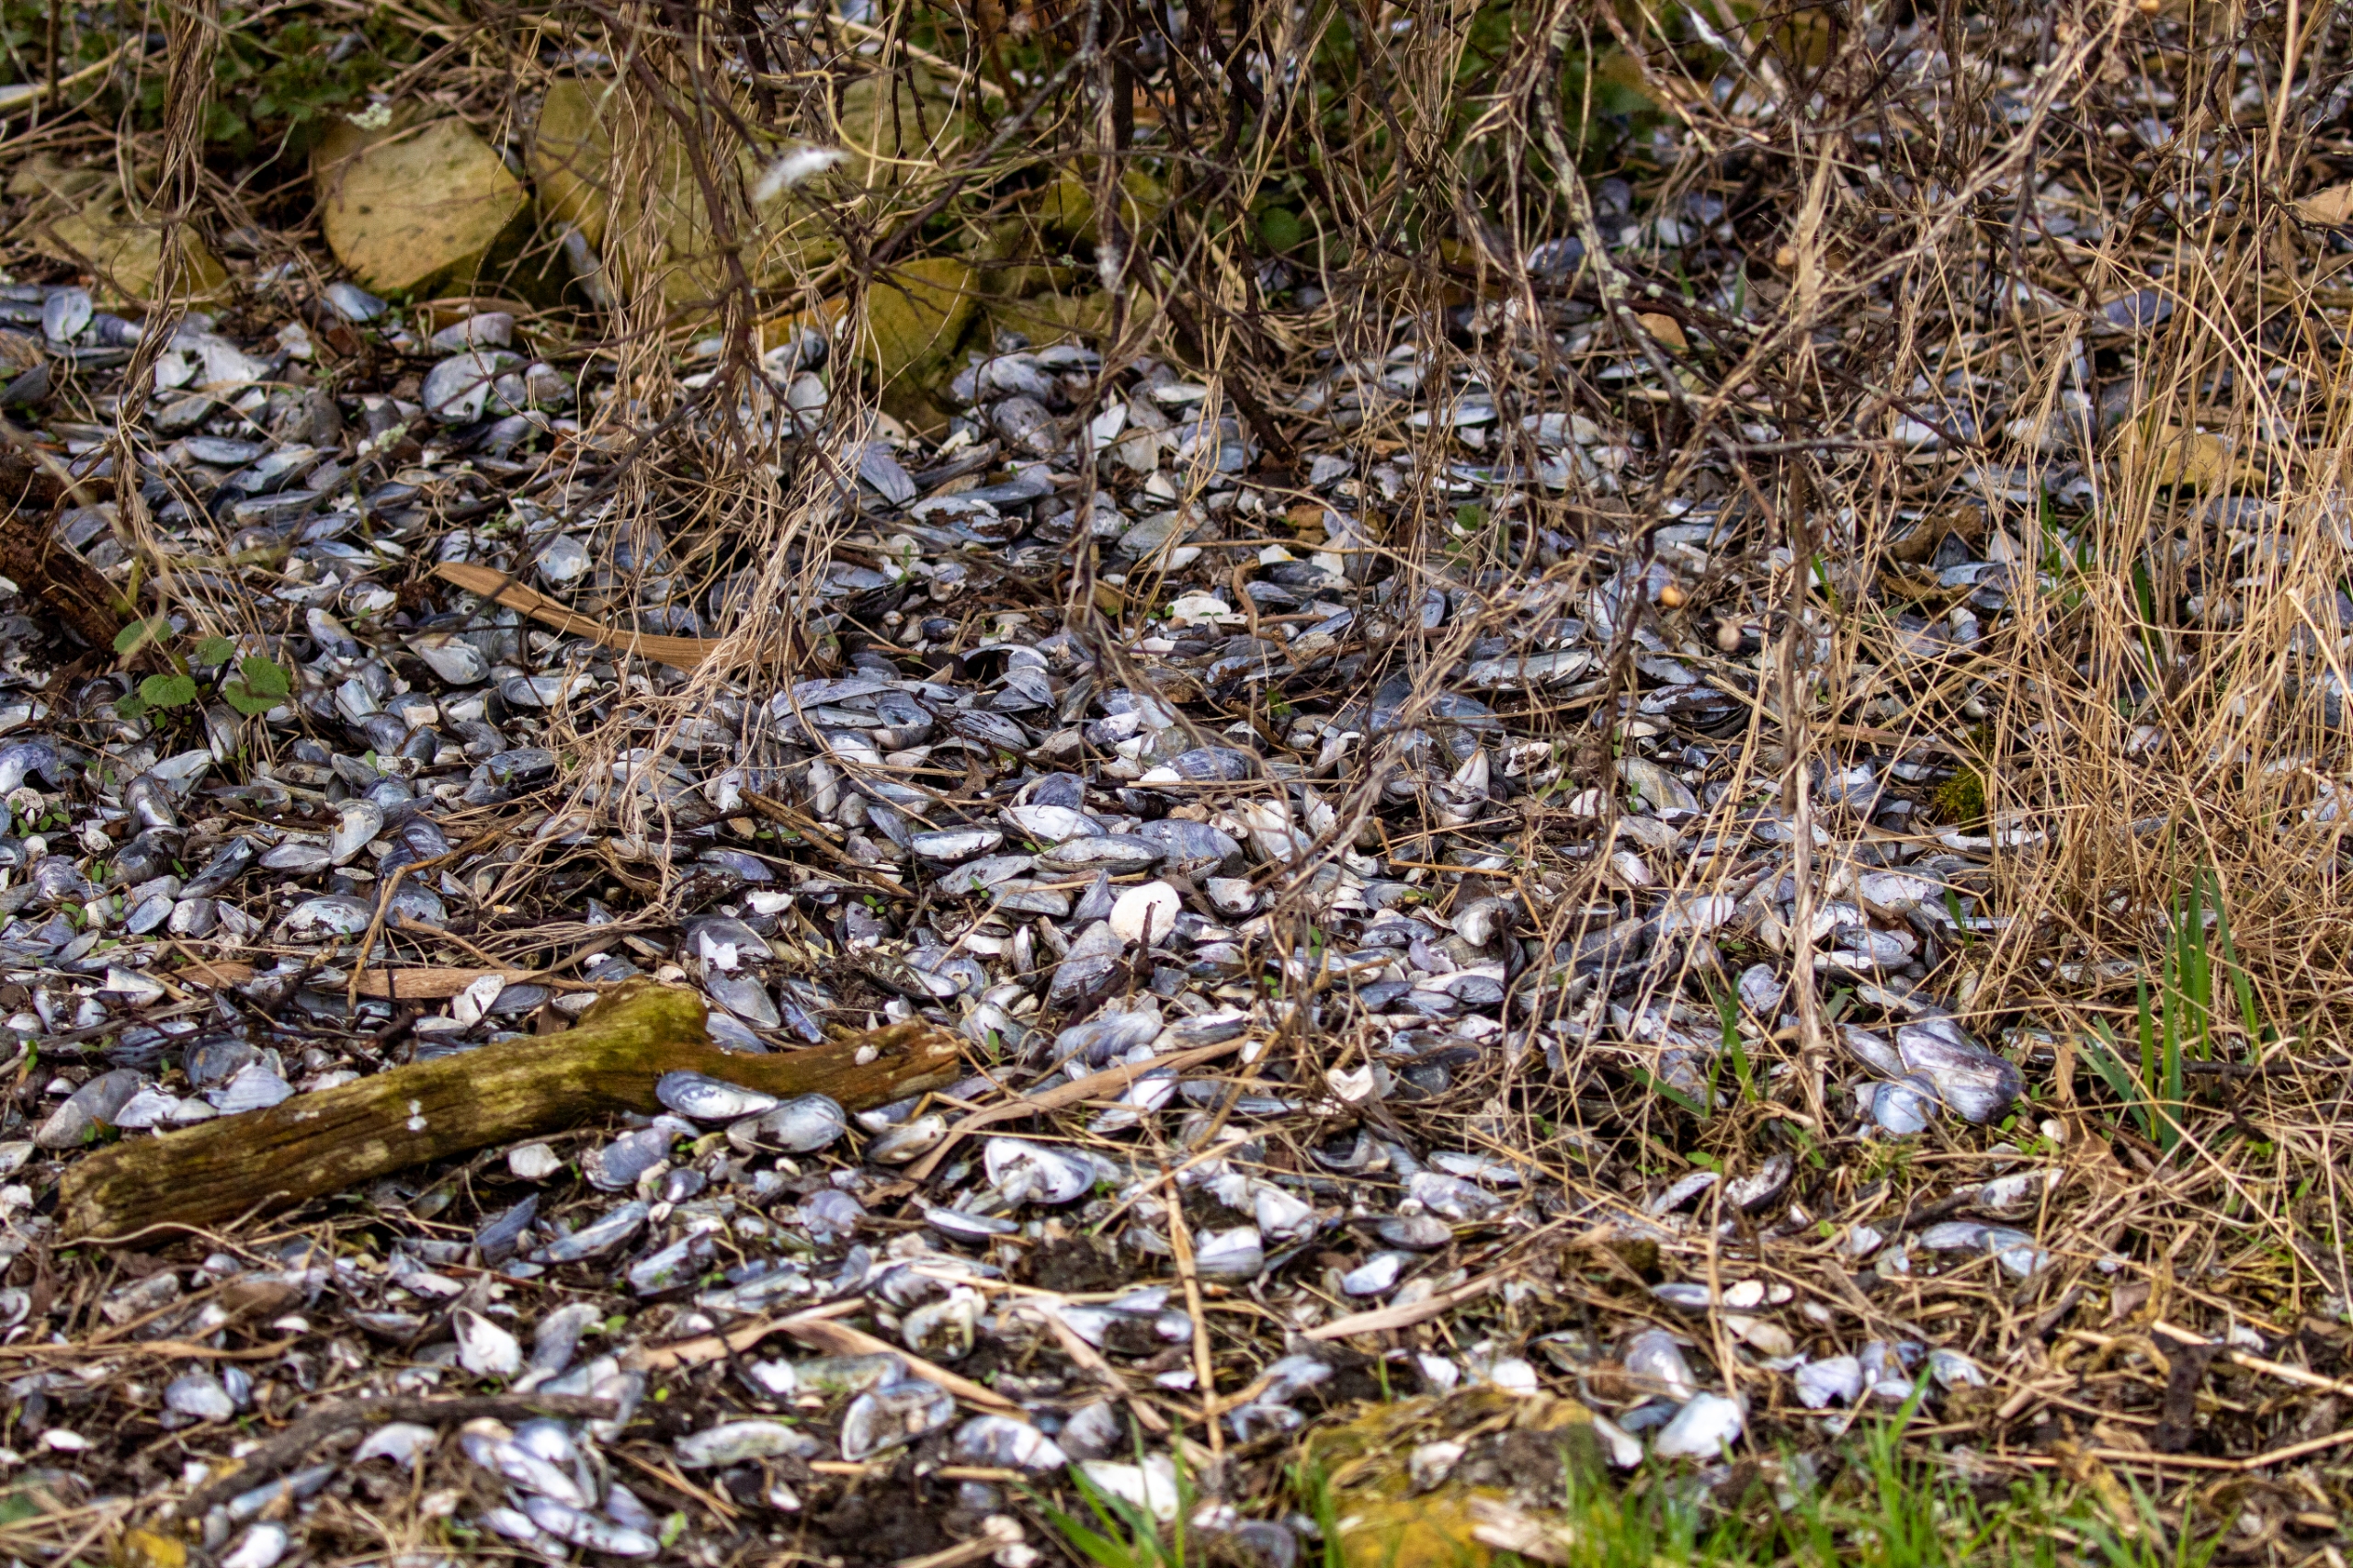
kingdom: Animalia
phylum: Mollusca
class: Bivalvia
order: Mytilida
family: Mytilidae
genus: Mytilus
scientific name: Mytilus edulis
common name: Blåmusling
